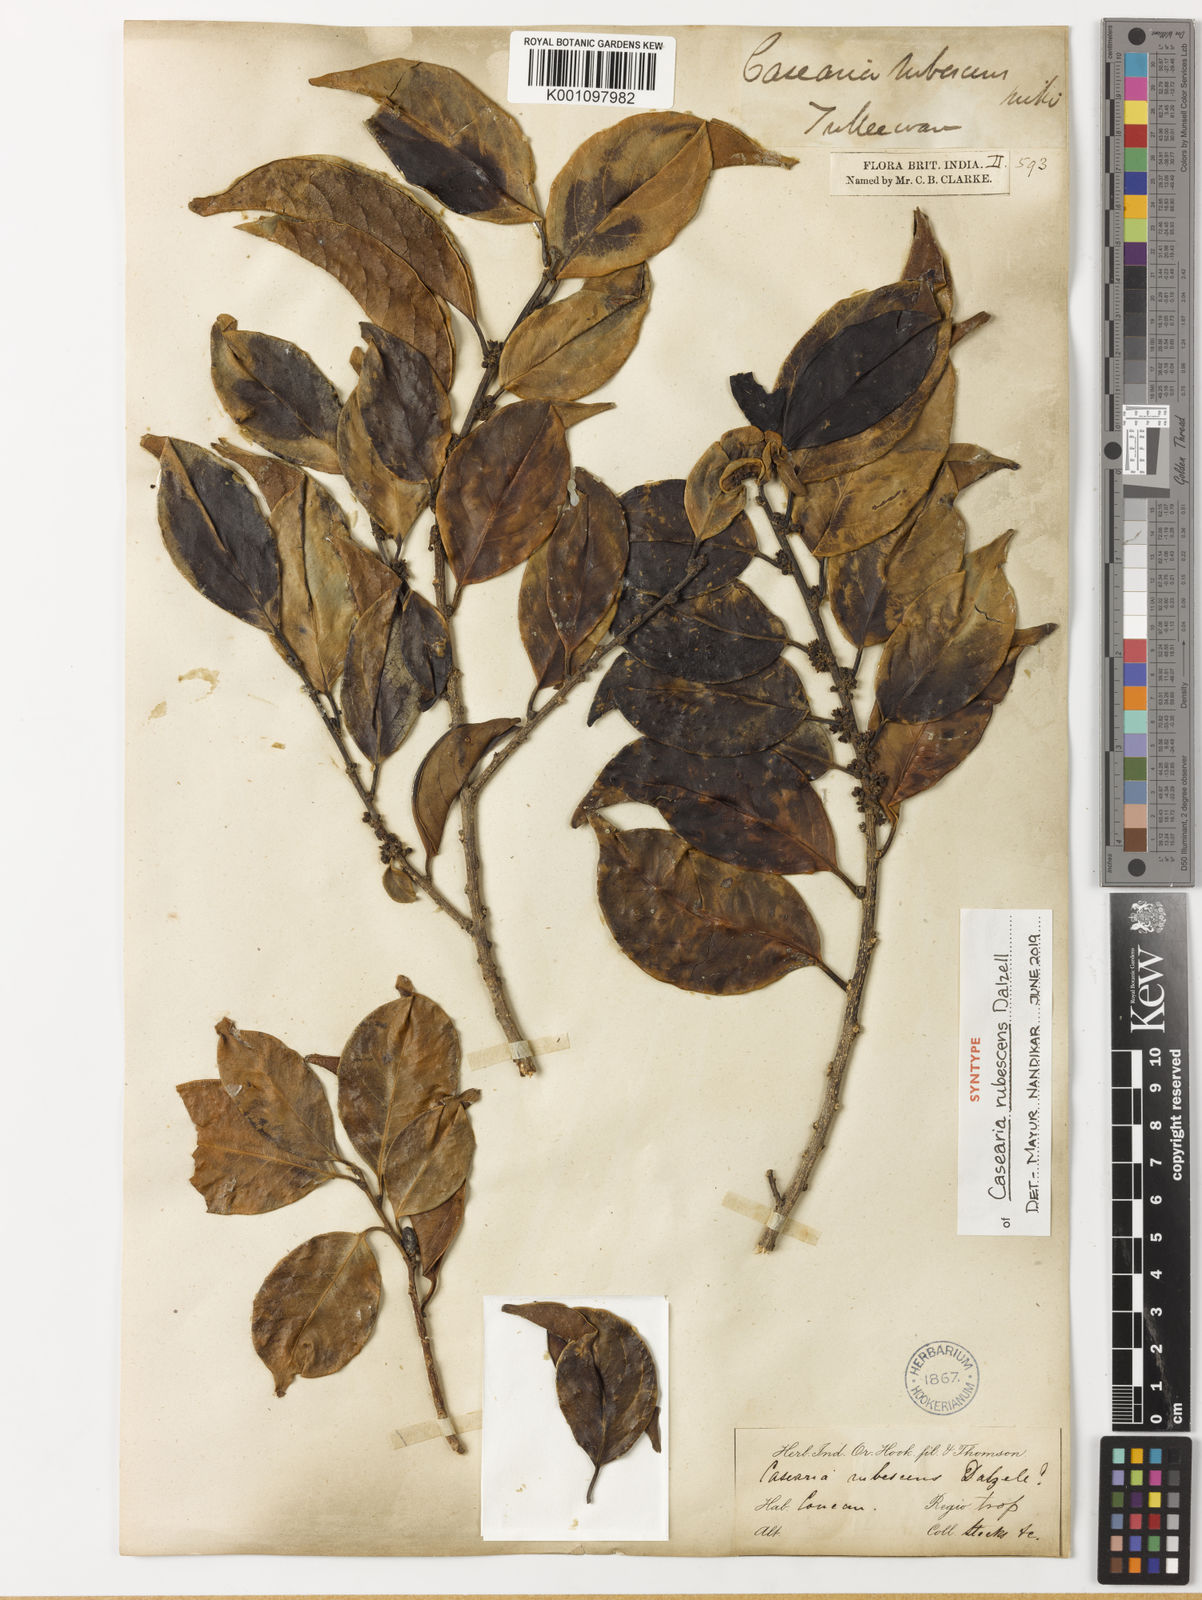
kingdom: Plantae
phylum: Tracheophyta
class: Magnoliopsida
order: Malpighiales
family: Salicaceae
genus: Casearia
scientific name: Casearia rubescens
